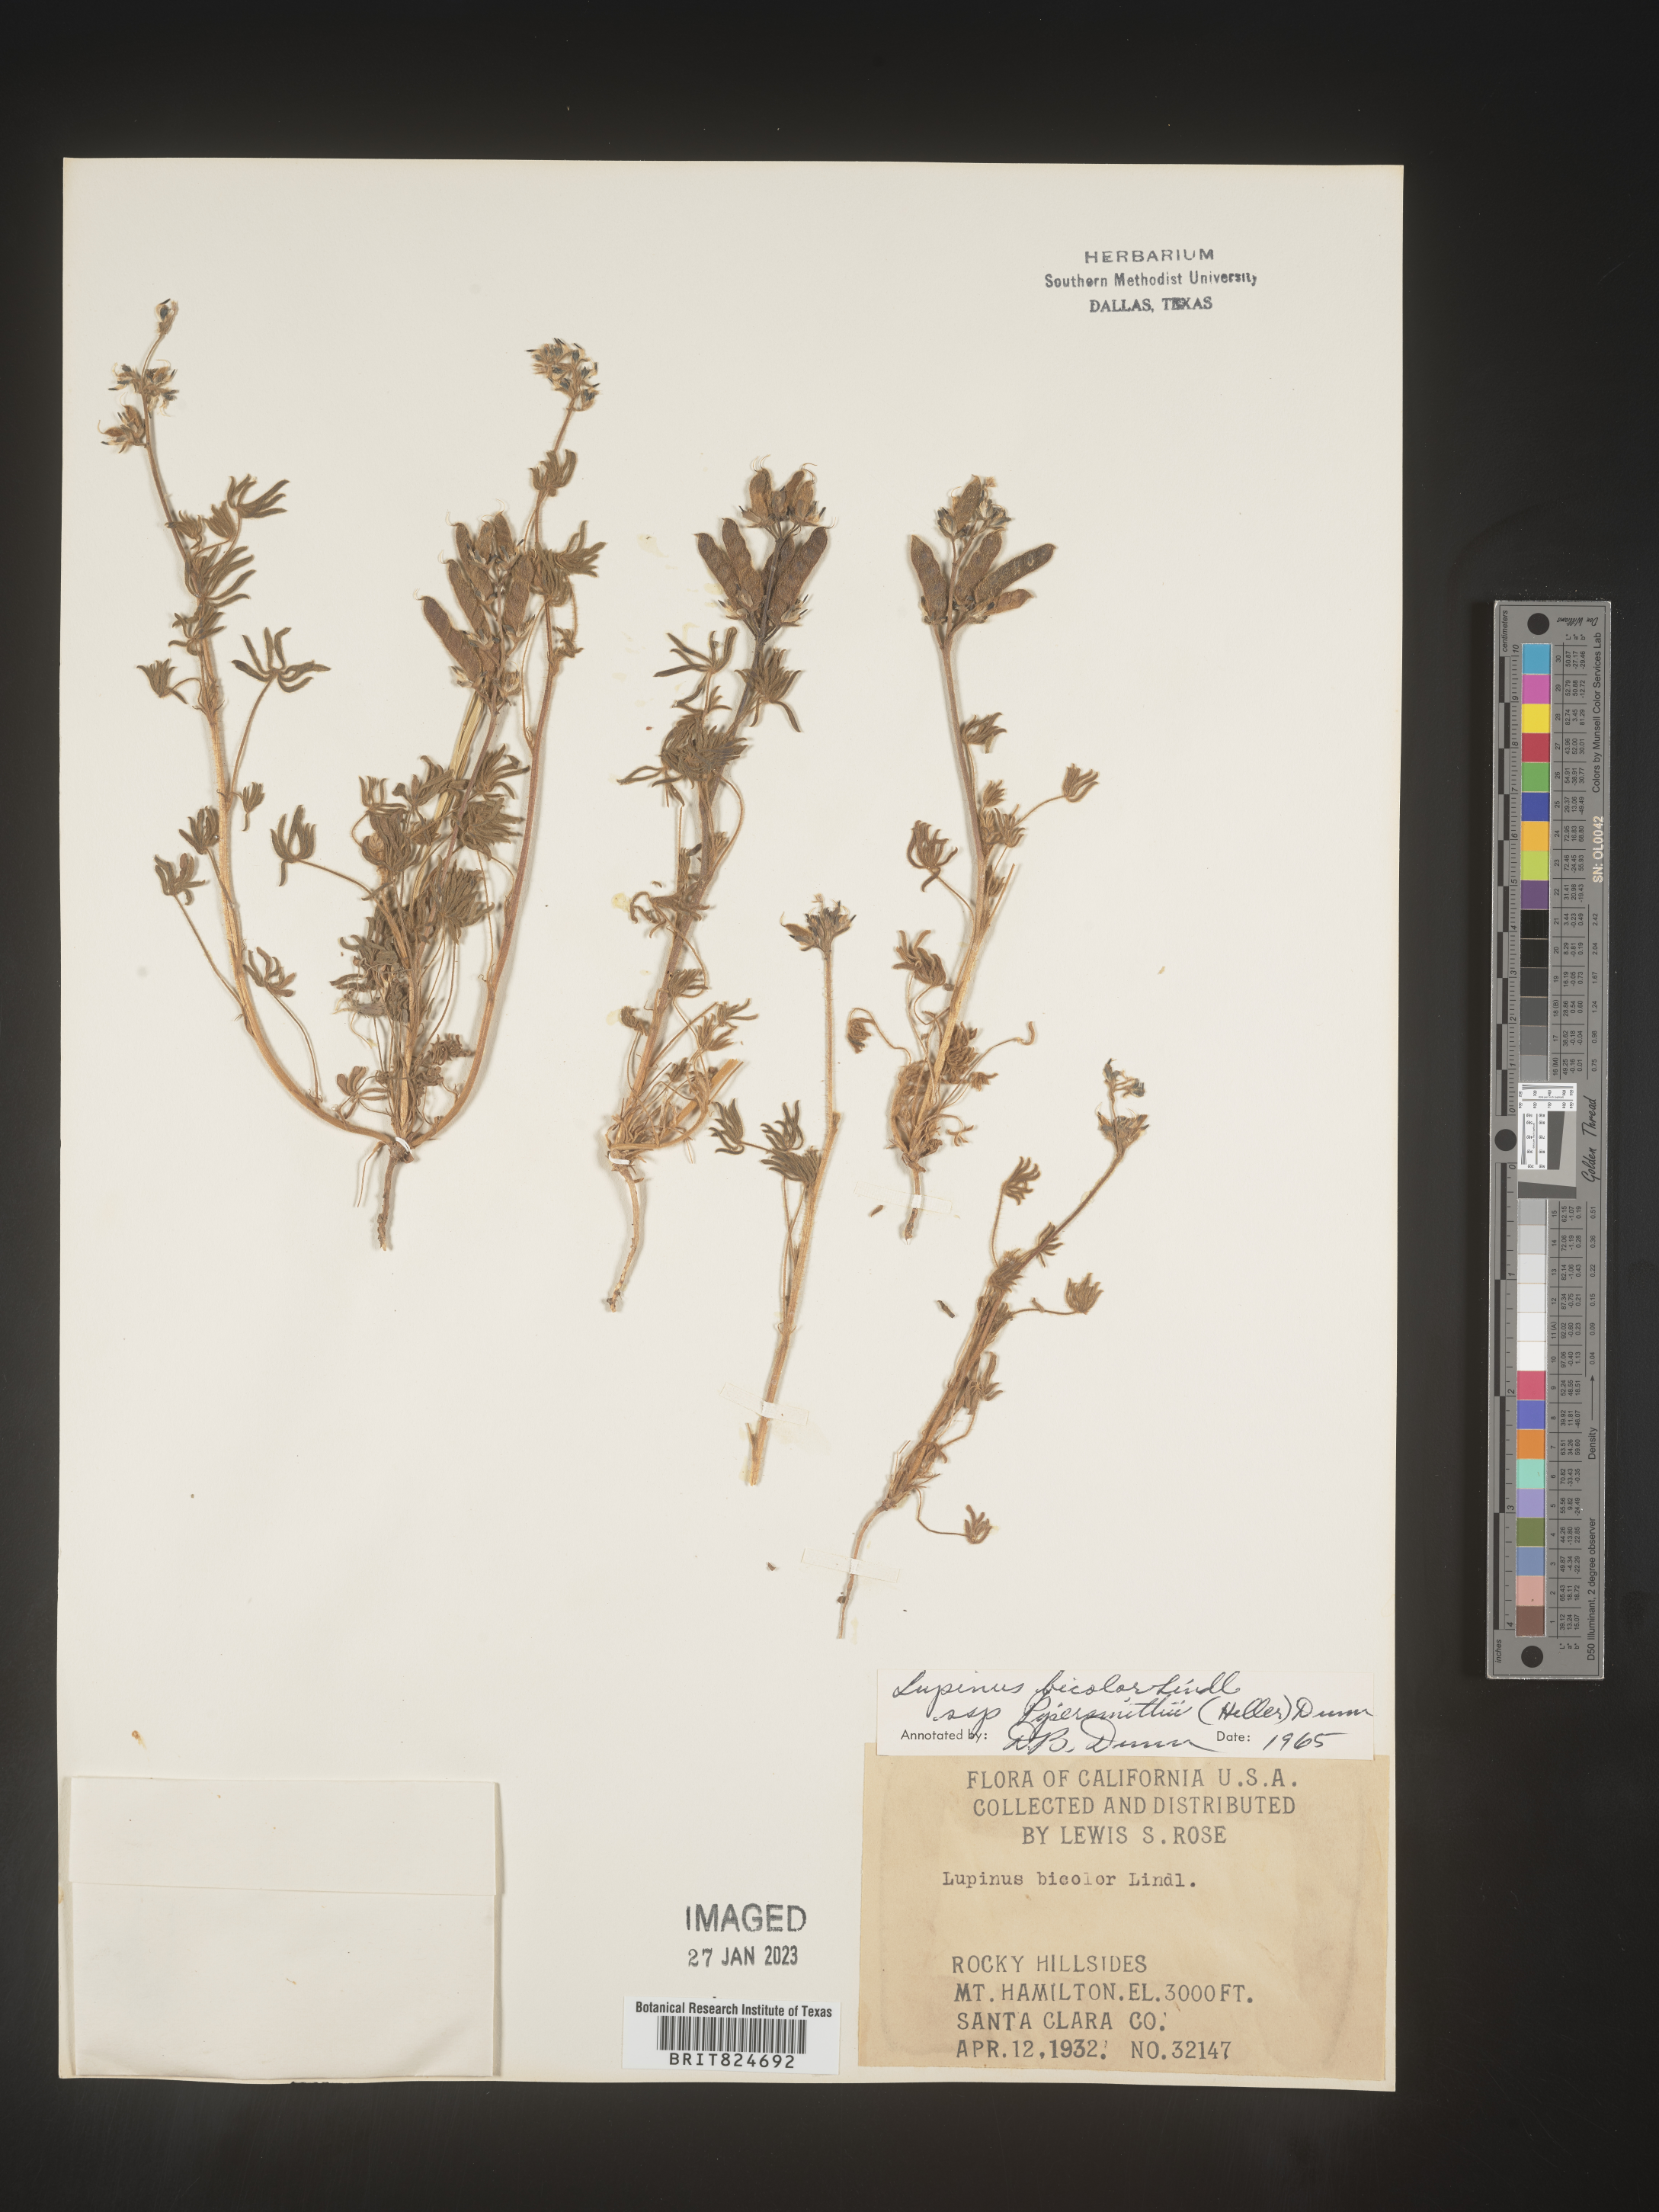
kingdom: Plantae
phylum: Tracheophyta
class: Magnoliopsida
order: Fabales
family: Fabaceae
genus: Lupinus
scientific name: Lupinus bicolor
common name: Miniature lupine
